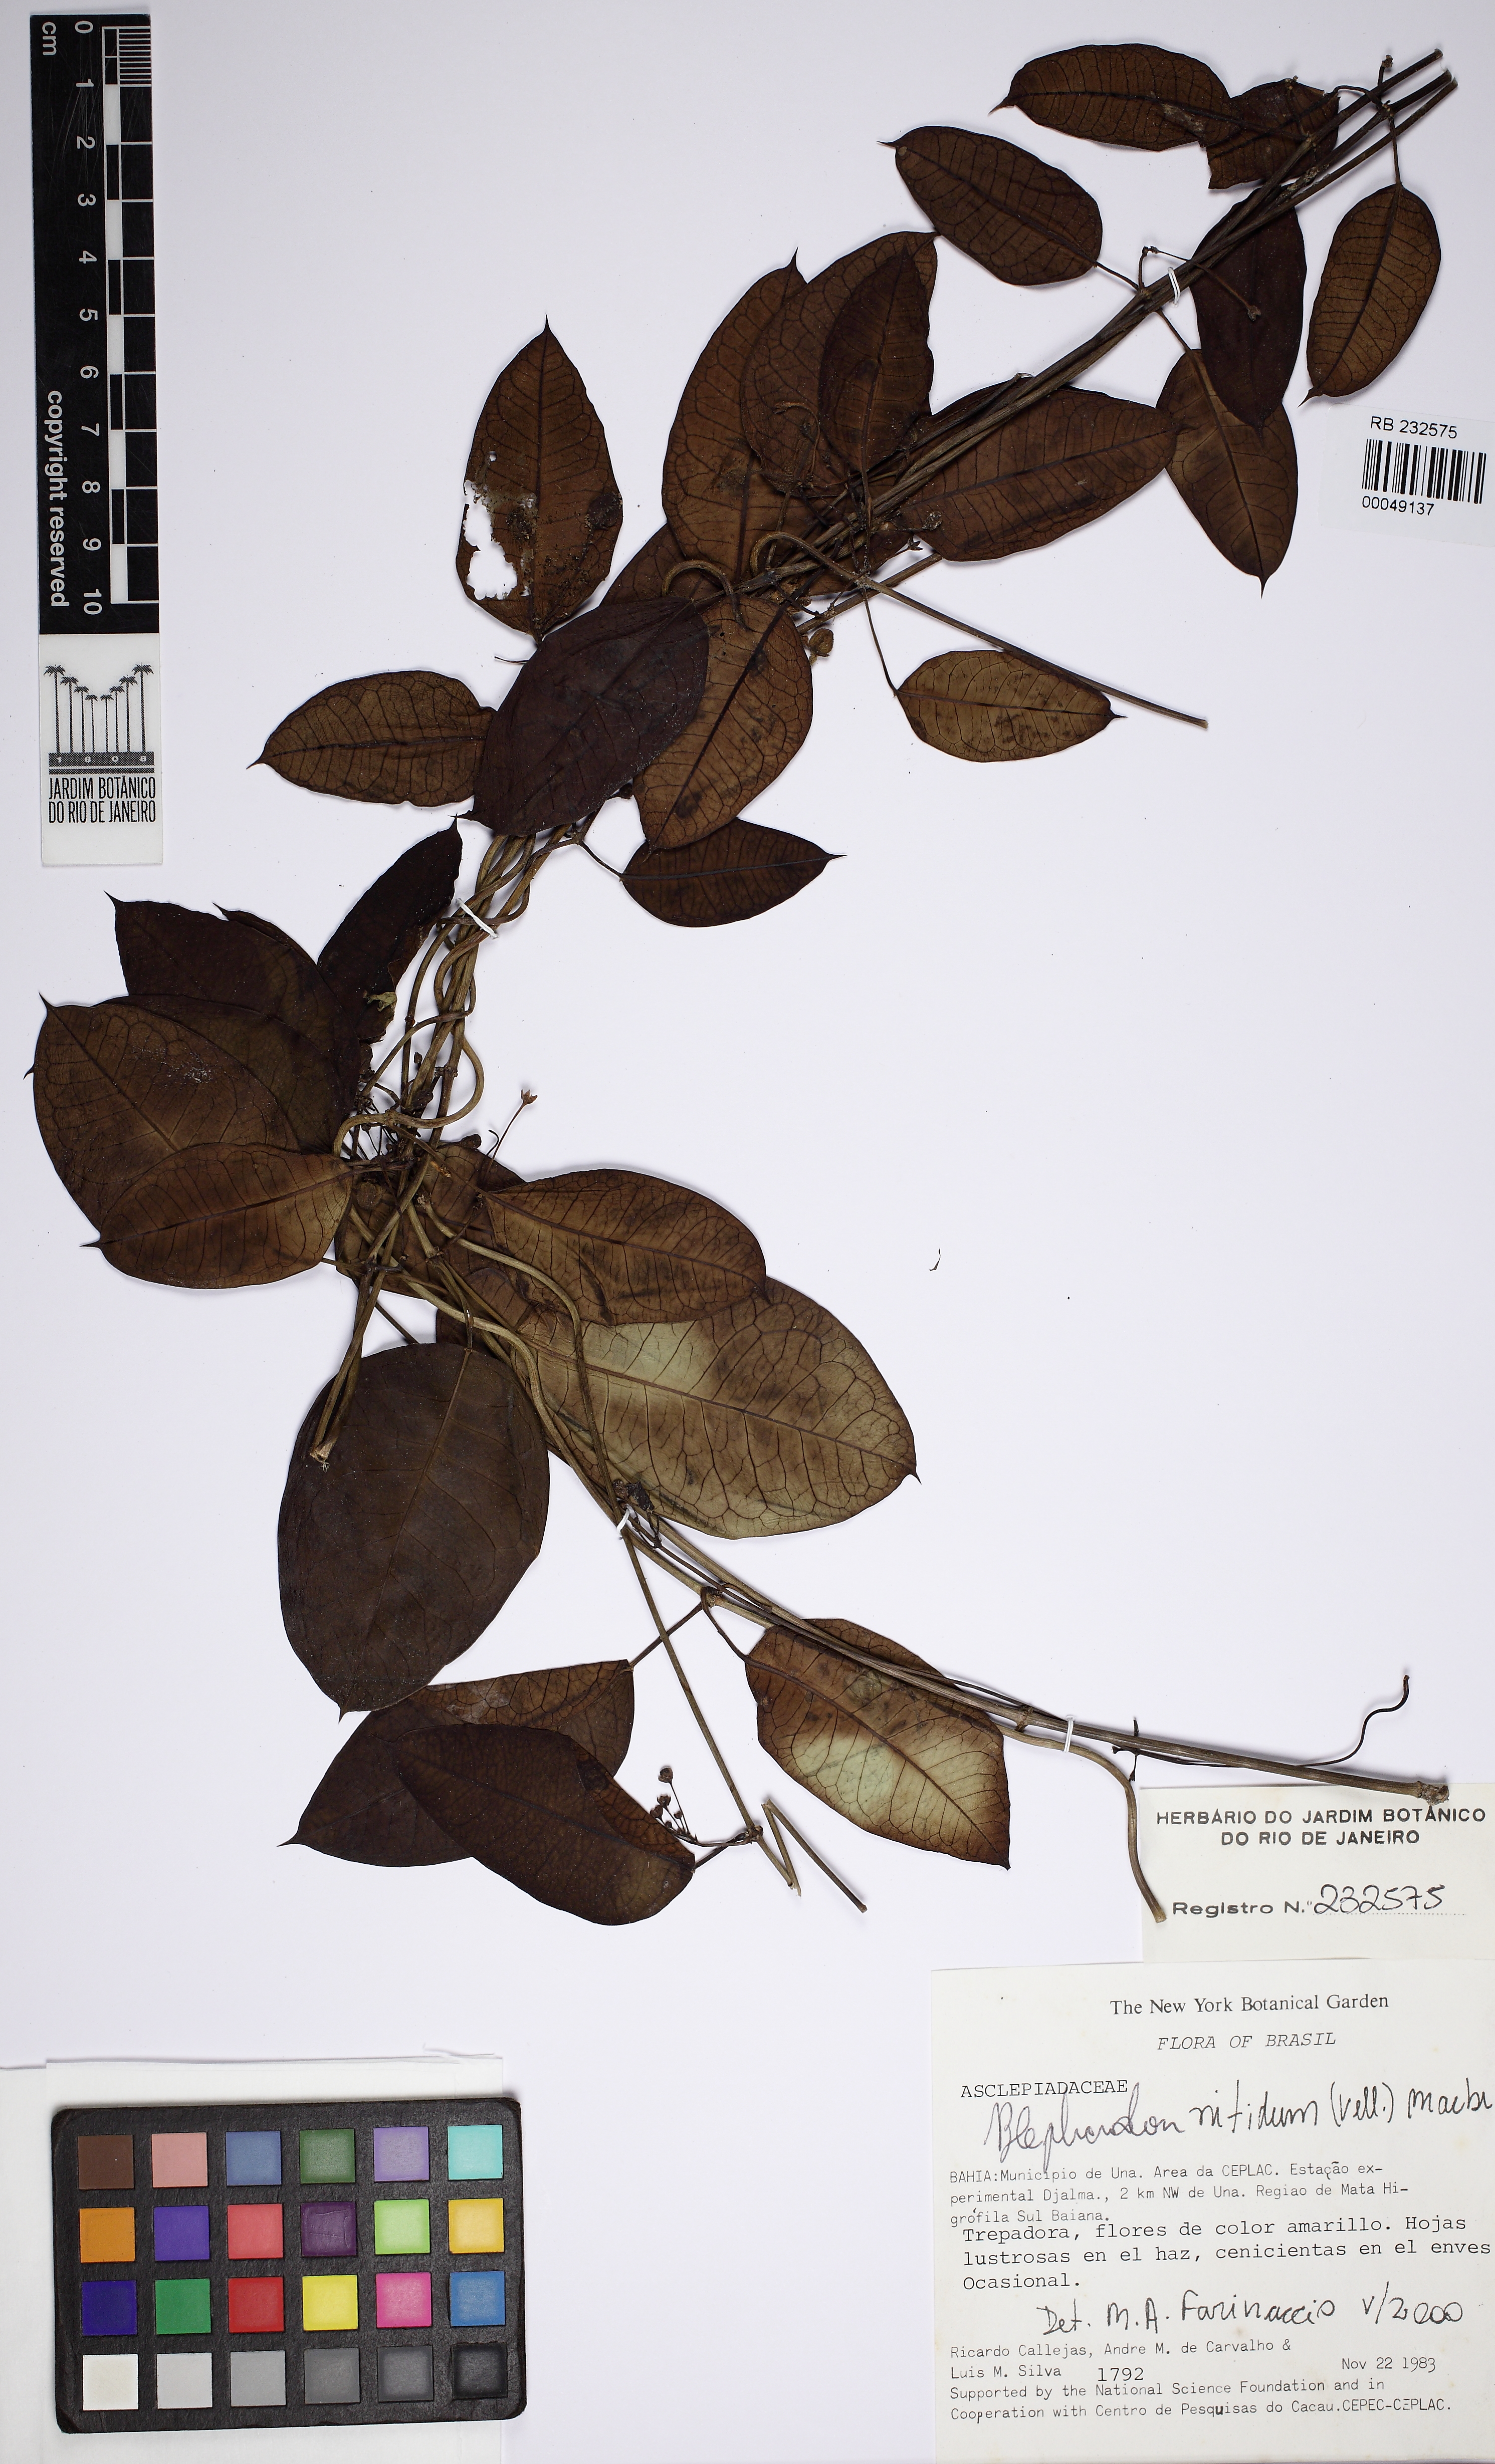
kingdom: Plantae
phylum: Tracheophyta
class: Magnoliopsida
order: Gentianales
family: Apocynaceae
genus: Blepharodon
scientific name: Blepharodon pictum
